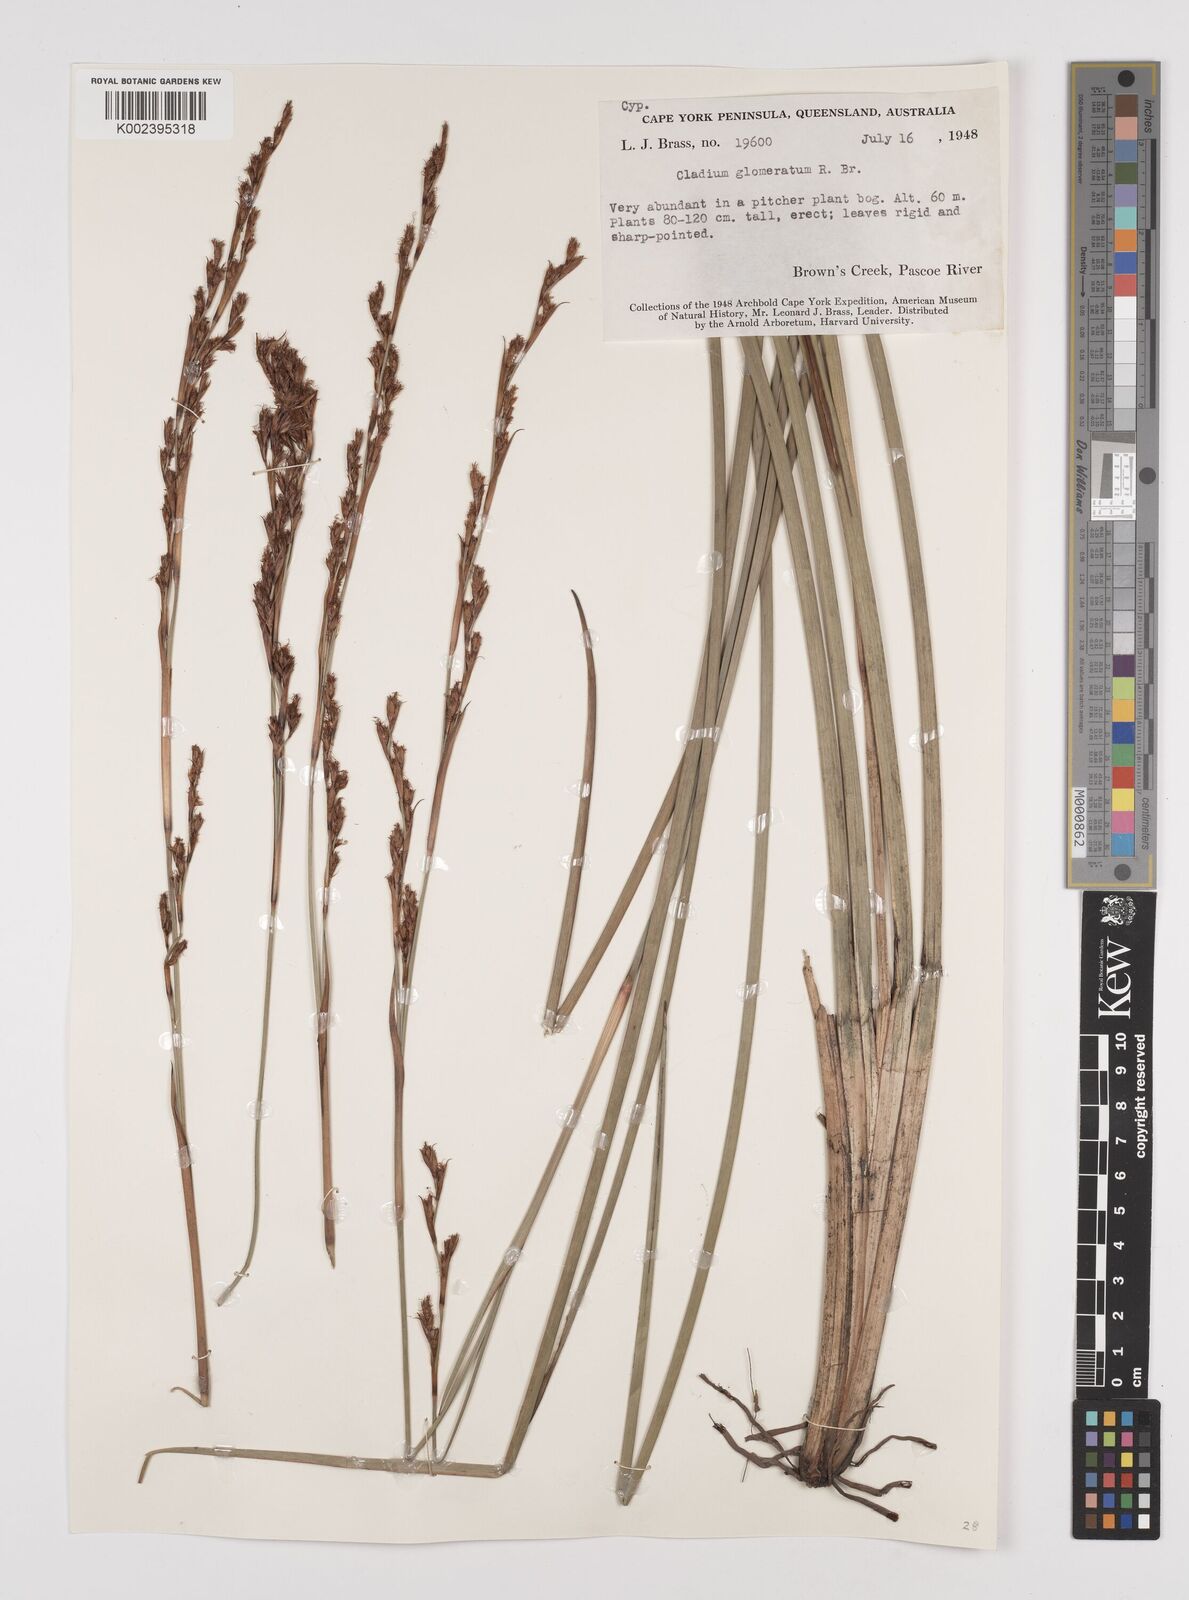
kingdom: Plantae
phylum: Tracheophyta
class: Liliopsida
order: Poales
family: Cyperaceae
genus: Machaerina
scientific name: Machaerina rubiginosa
